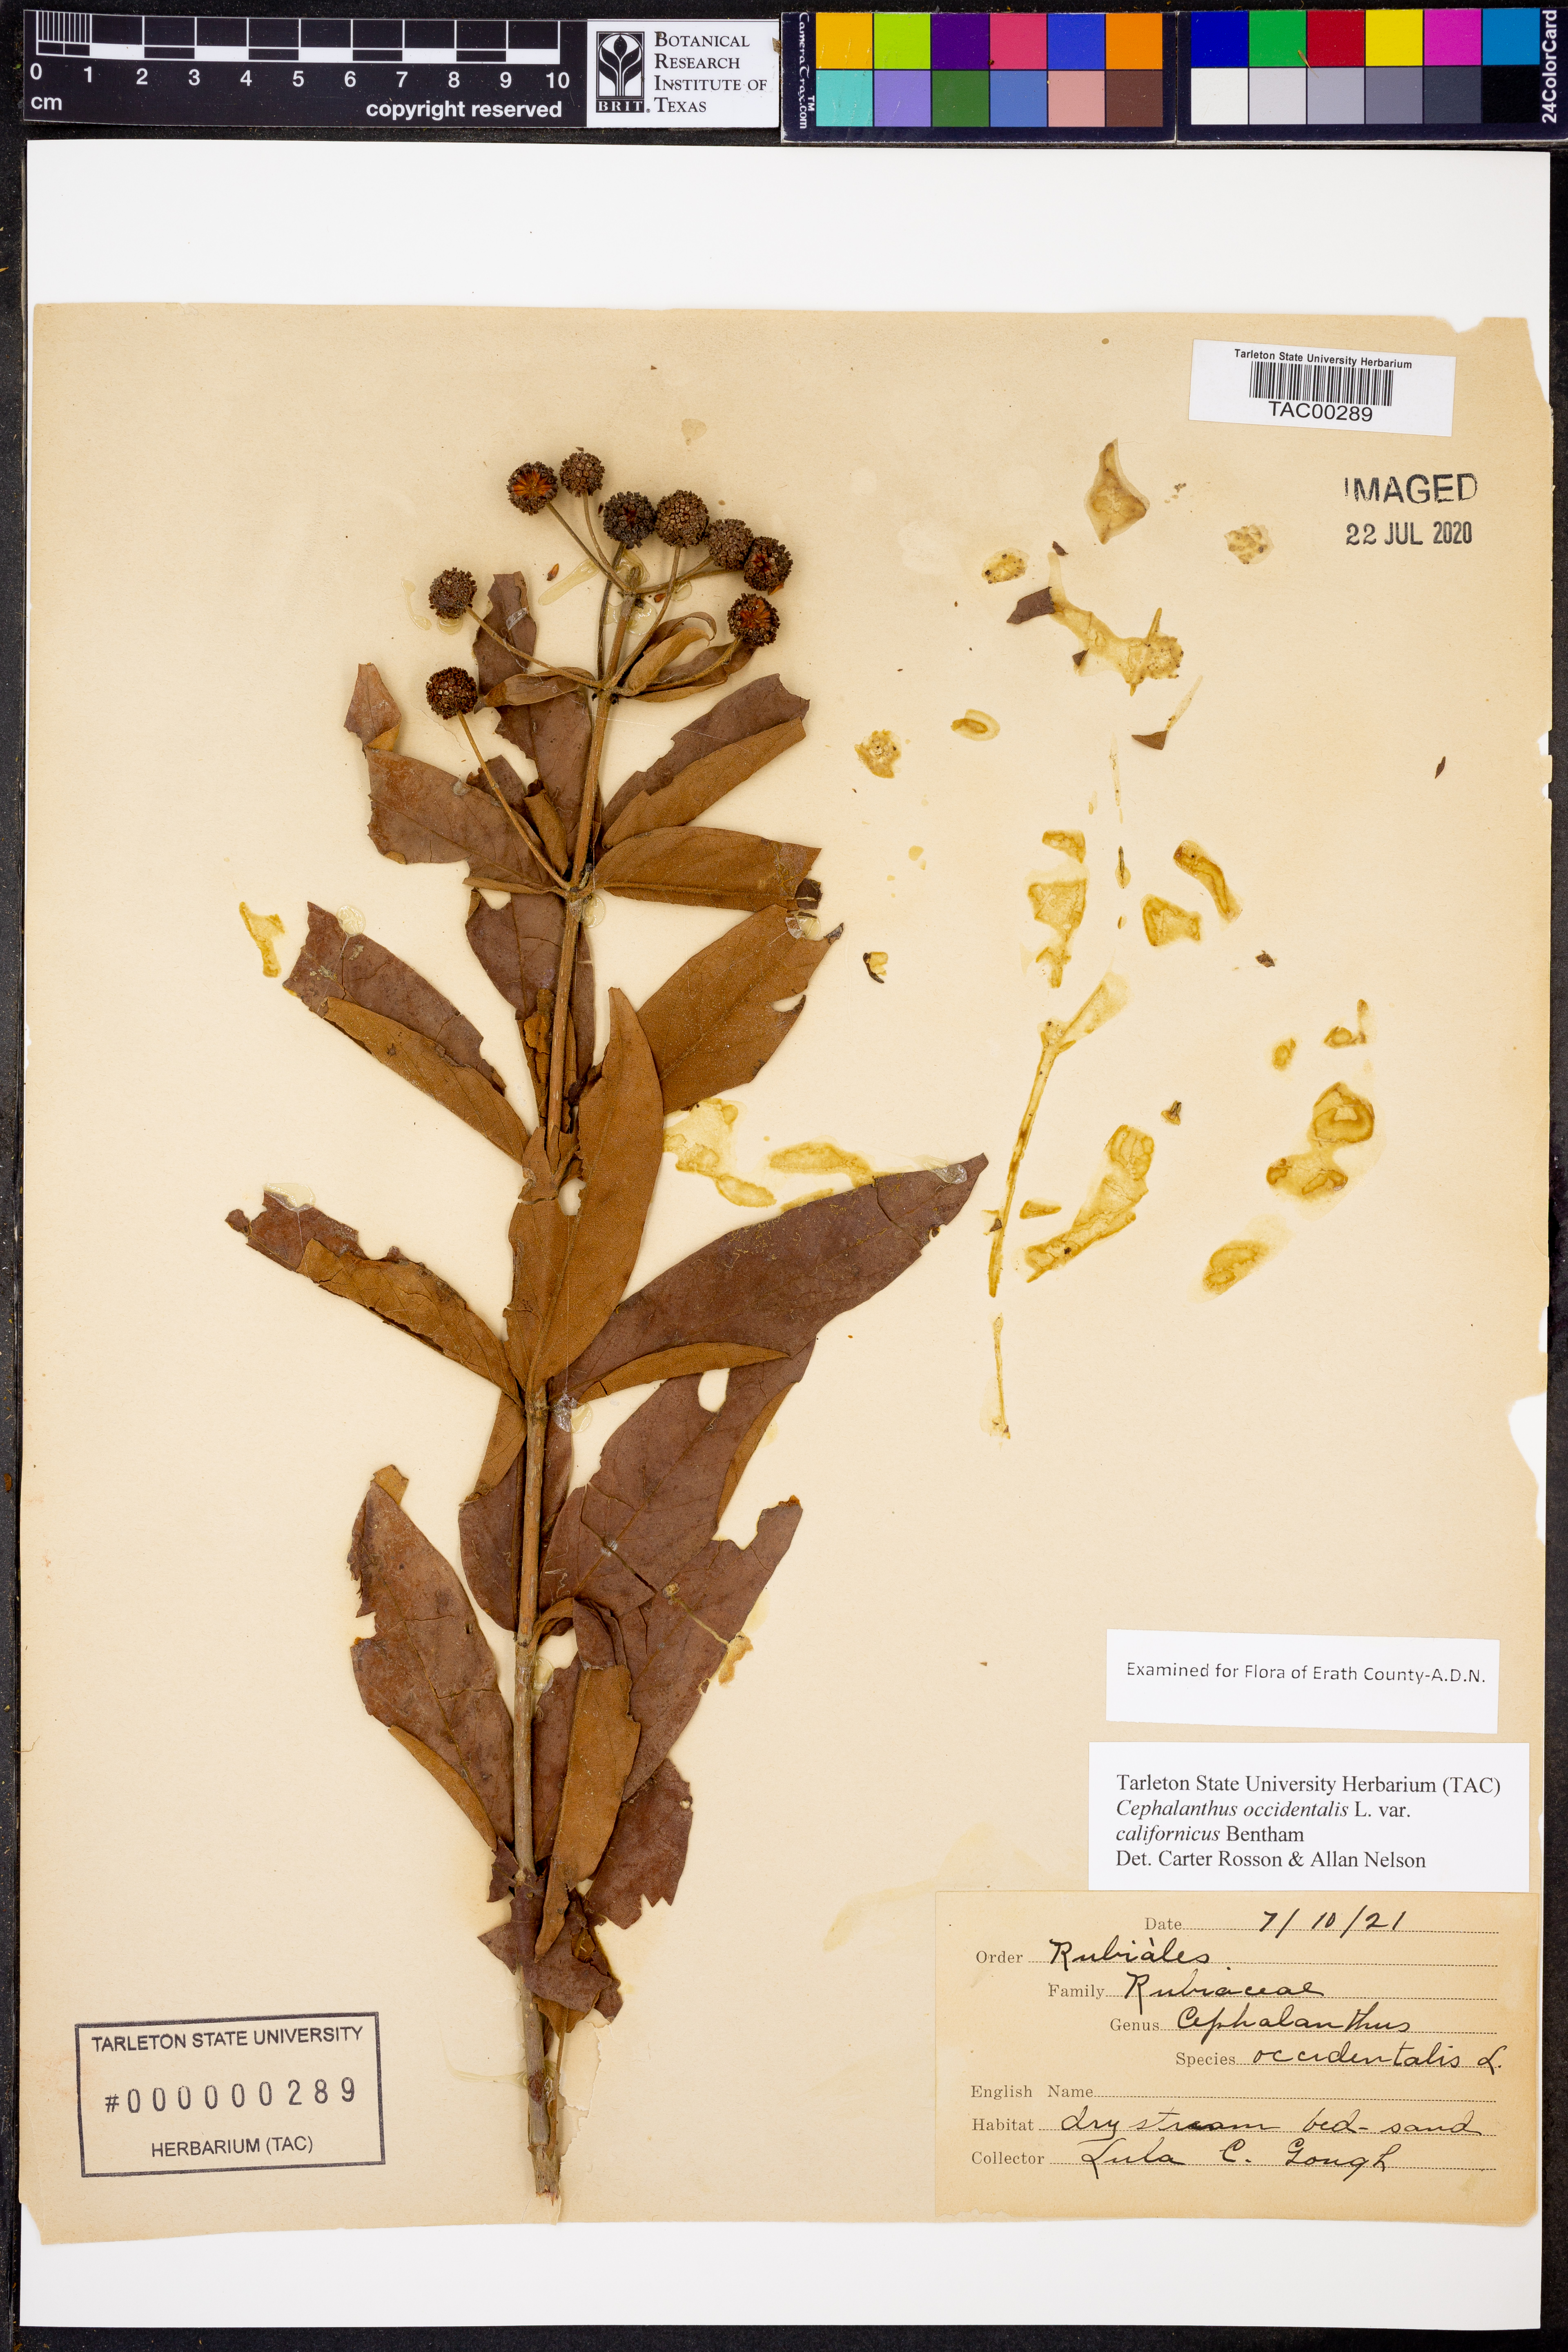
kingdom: Plantae
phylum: Tracheophyta
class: Magnoliopsida
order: Gentianales
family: Rubiaceae
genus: Cephalanthus
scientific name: Cephalanthus occidentalis
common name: Button-willow
